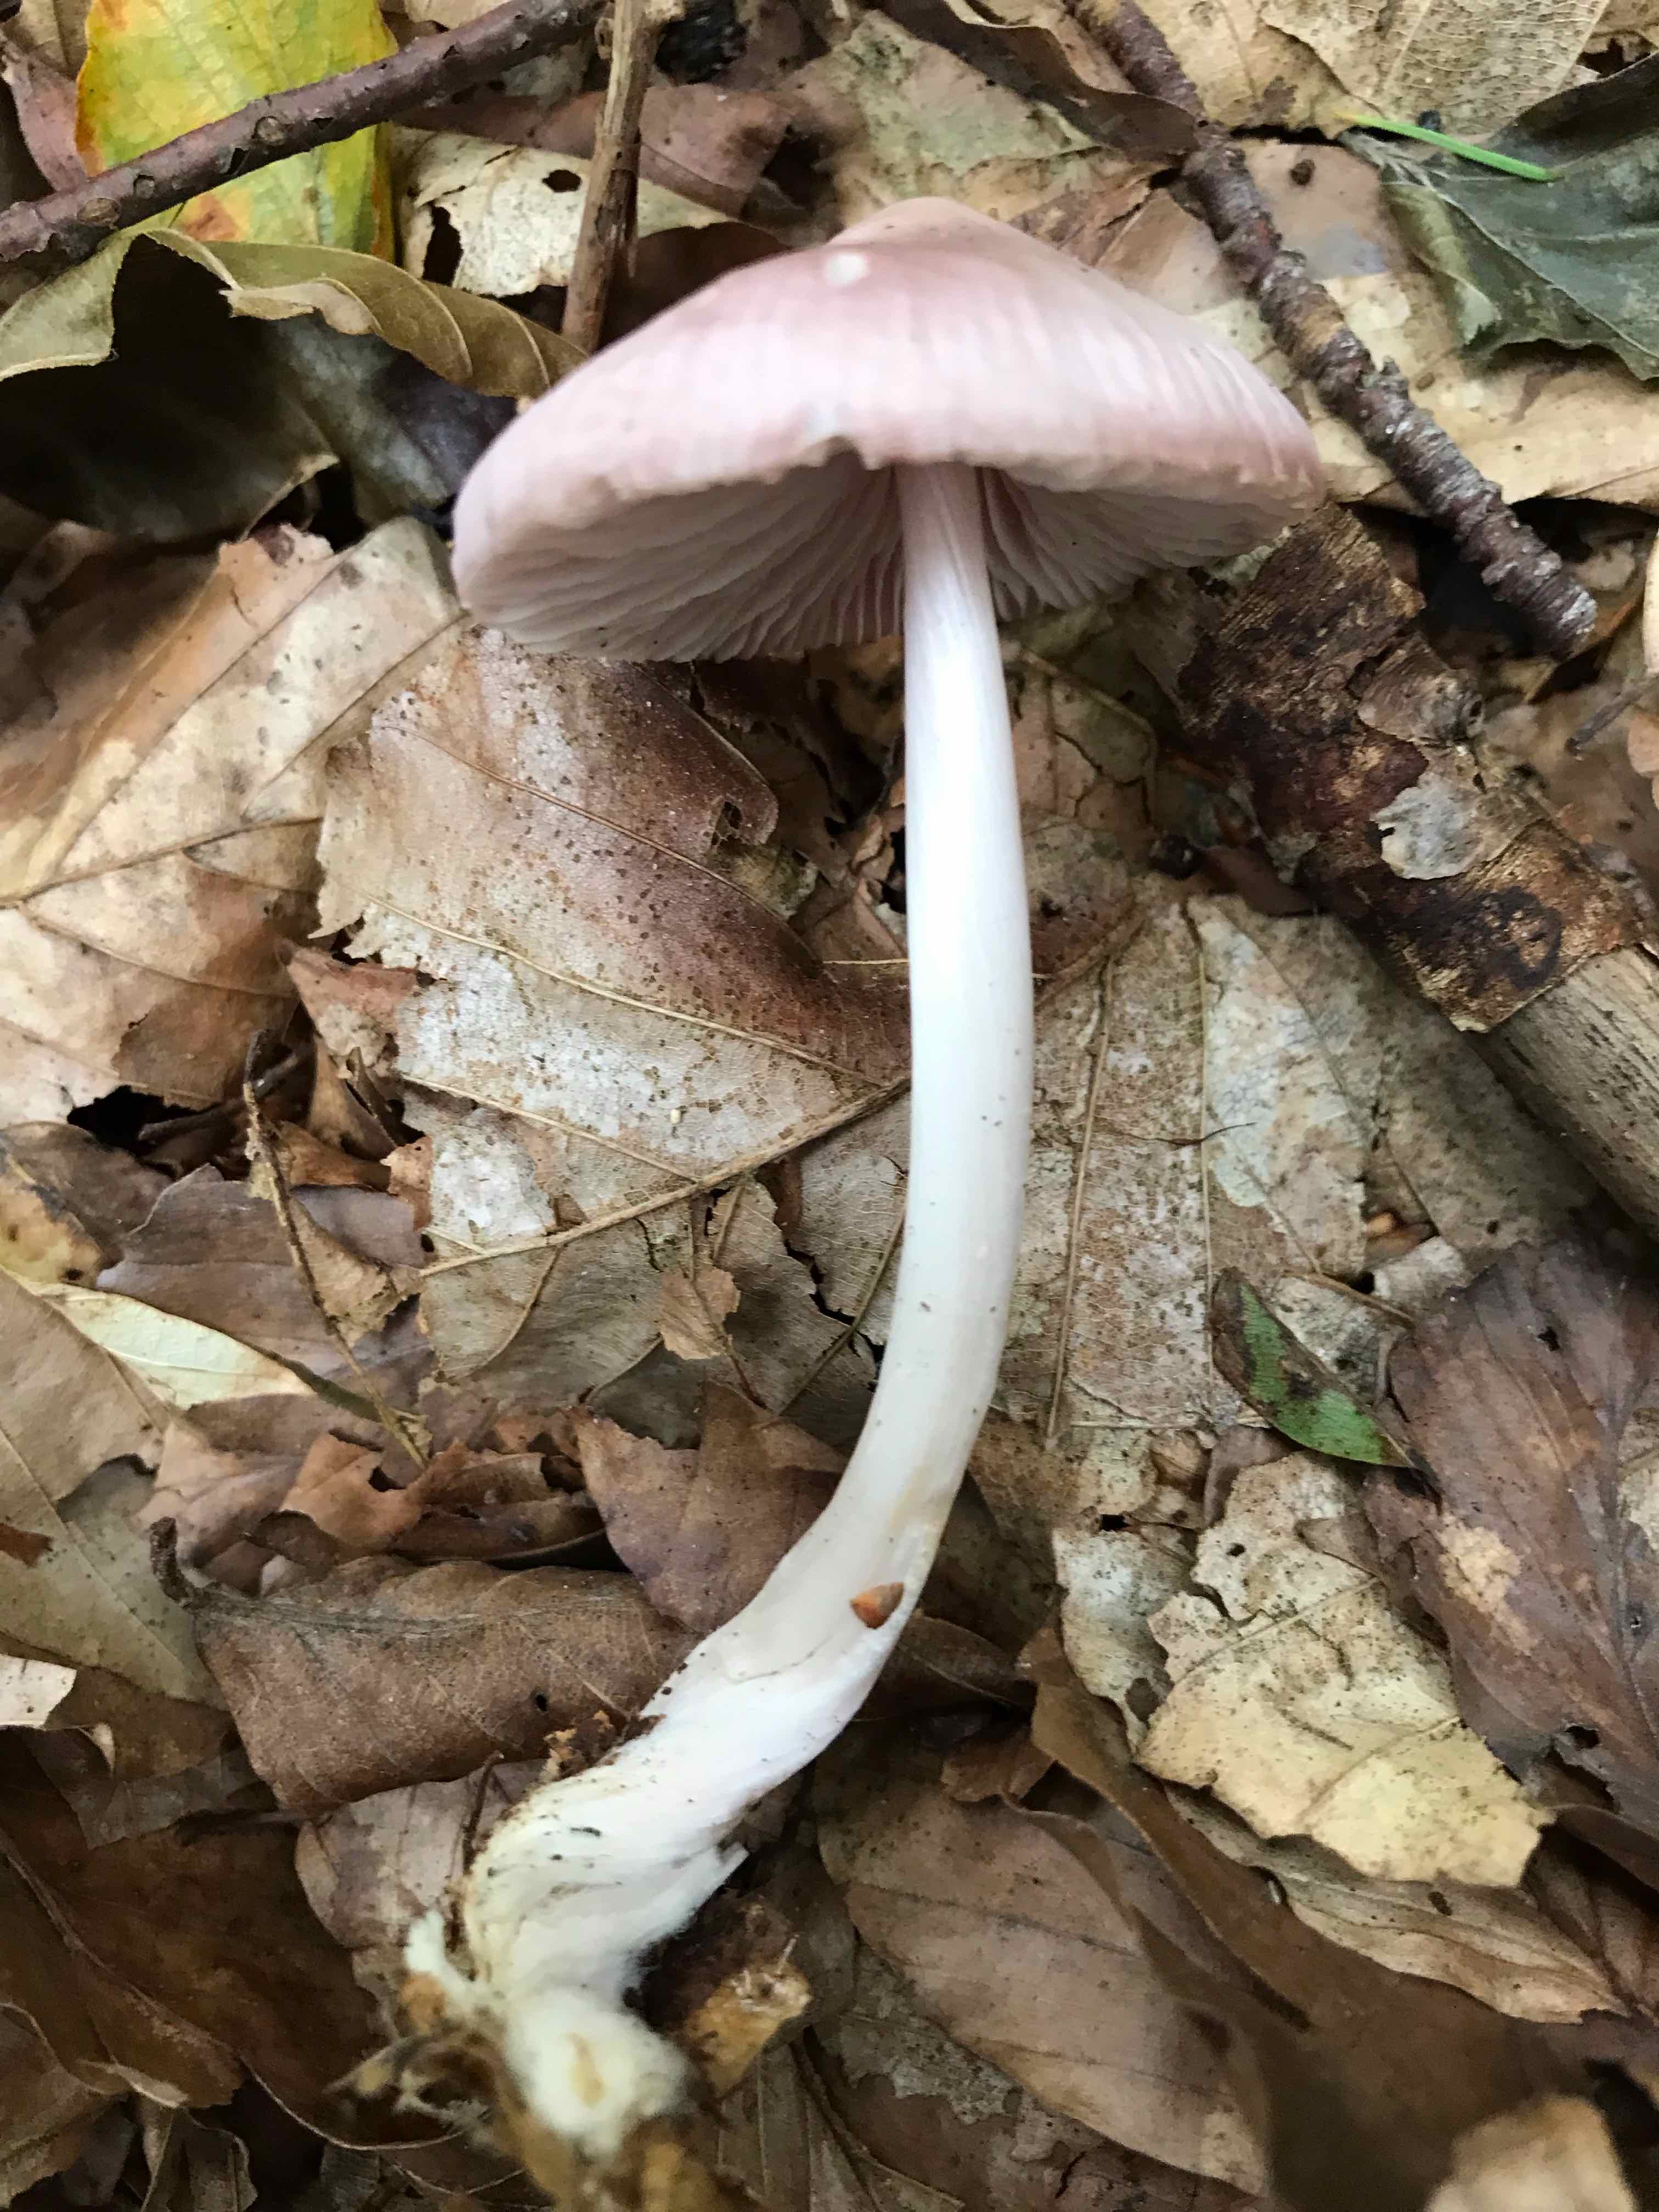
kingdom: Fungi
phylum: Basidiomycota
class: Agaricomycetes
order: Agaricales
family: Mycenaceae
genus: Mycena
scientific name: Mycena rosea
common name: rosa huesvamp
